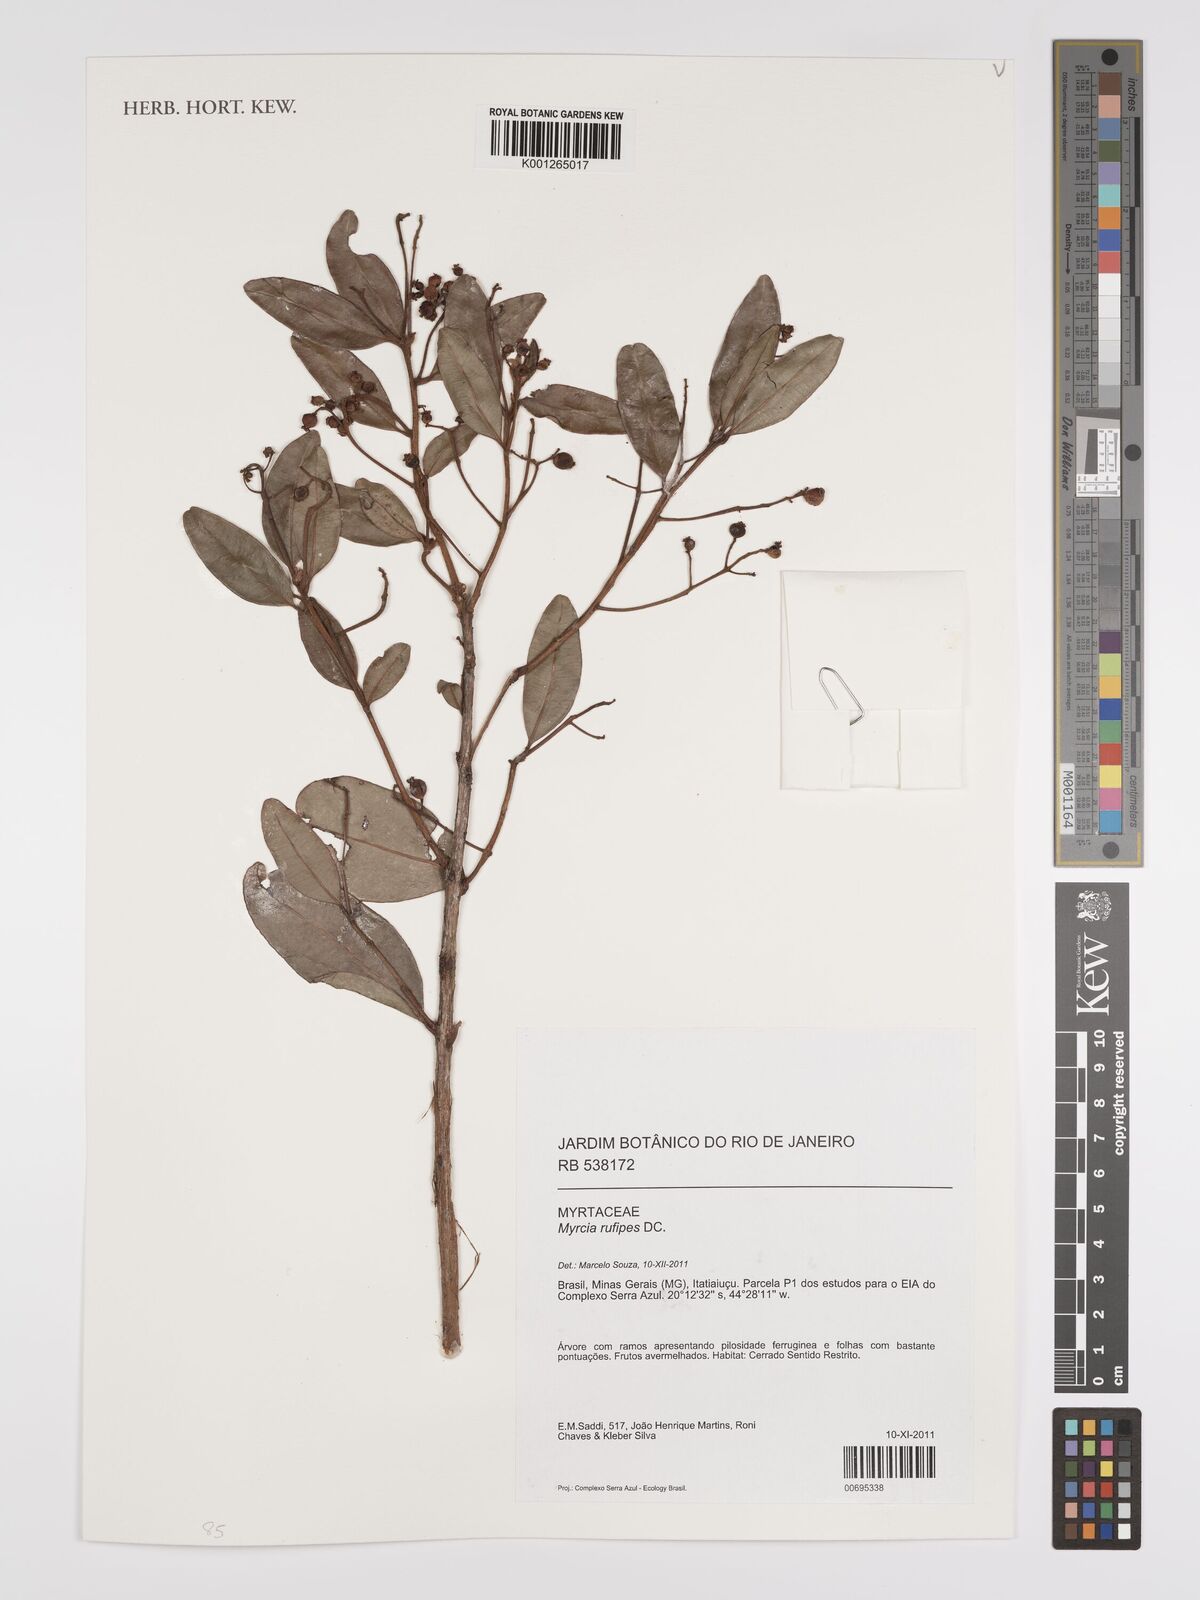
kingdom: Plantae
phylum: Tracheophyta
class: Magnoliopsida
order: Myrtales
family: Myrtaceae
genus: Myrcia
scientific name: Myrcia rufipes
